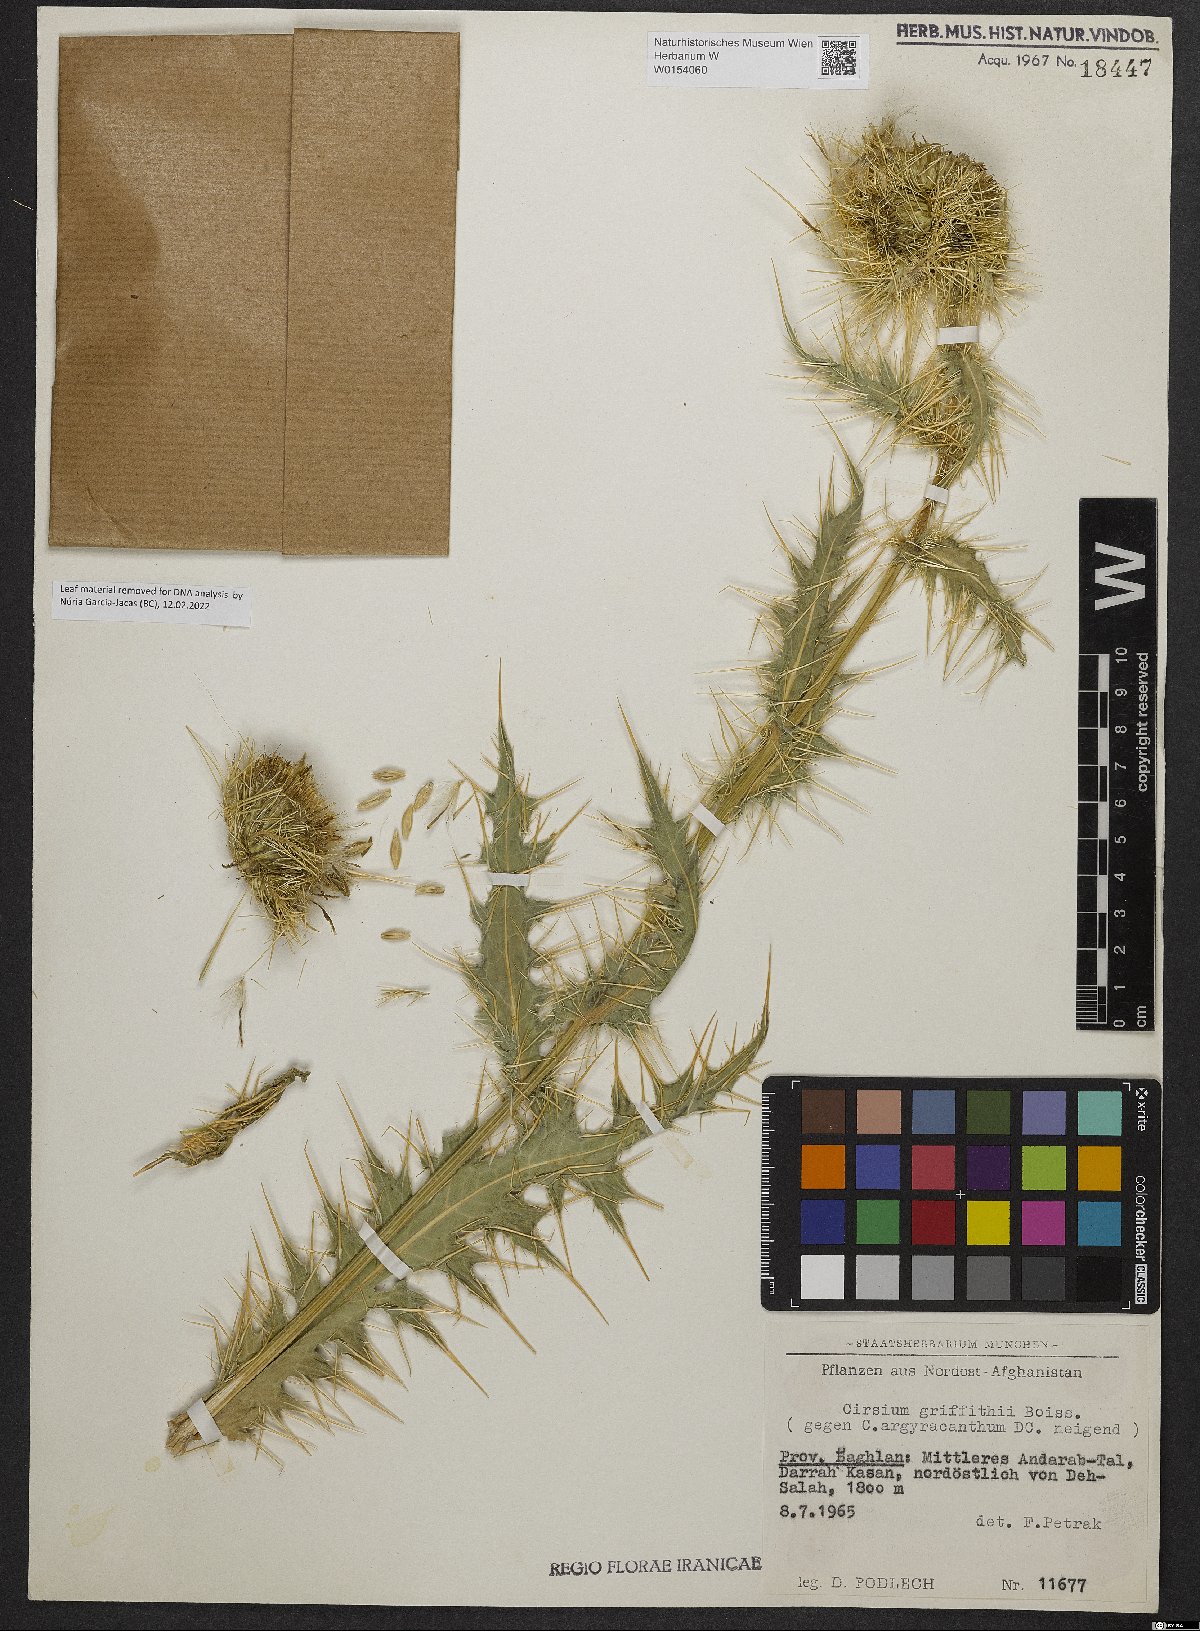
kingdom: Plantae
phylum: Tracheophyta
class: Magnoliopsida
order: Asterales
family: Asteraceae
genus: Lophiolepis
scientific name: Lophiolepis griffithii
